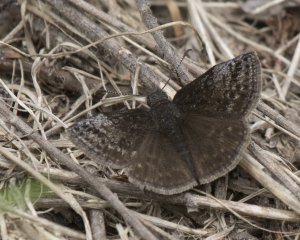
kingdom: Animalia
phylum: Arthropoda
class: Insecta
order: Lepidoptera
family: Hesperiidae
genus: Erynnis
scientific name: Erynnis icelus
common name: Dreamy Duskywing
